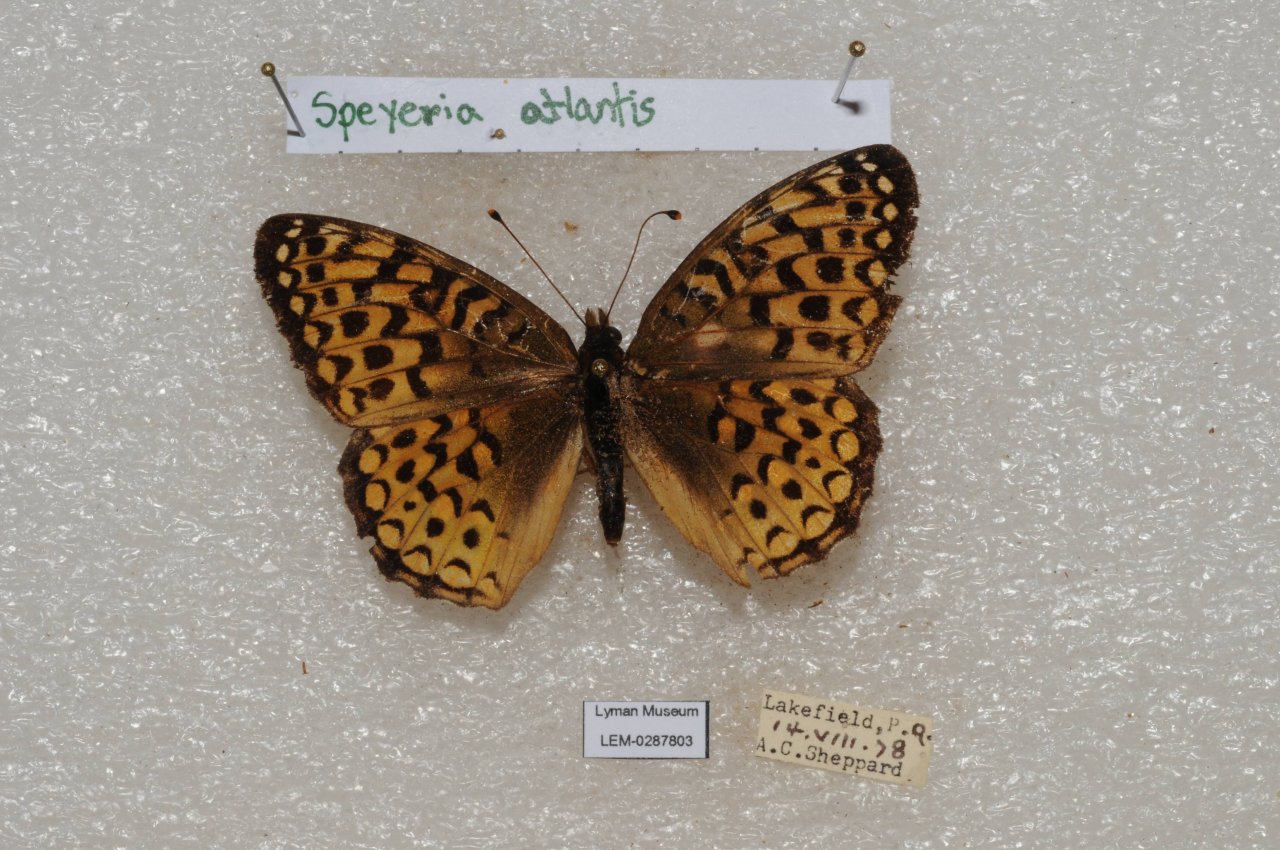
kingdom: Animalia
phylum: Arthropoda
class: Insecta
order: Lepidoptera
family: Nymphalidae
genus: Speyeria
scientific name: Speyeria atlantis
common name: Atlantis Fritillary
